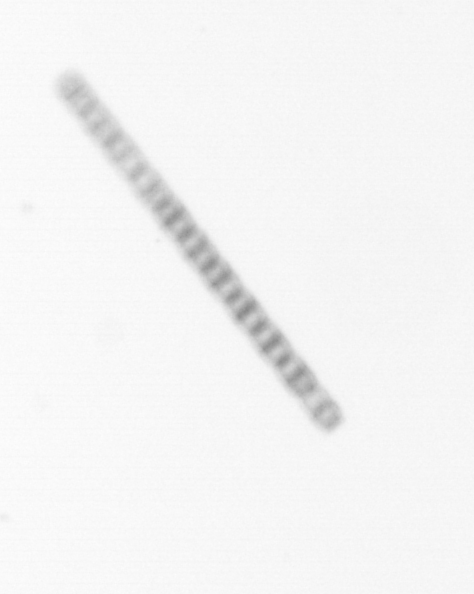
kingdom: Chromista
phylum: Ochrophyta
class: Bacillariophyceae
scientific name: Bacillariophyceae
